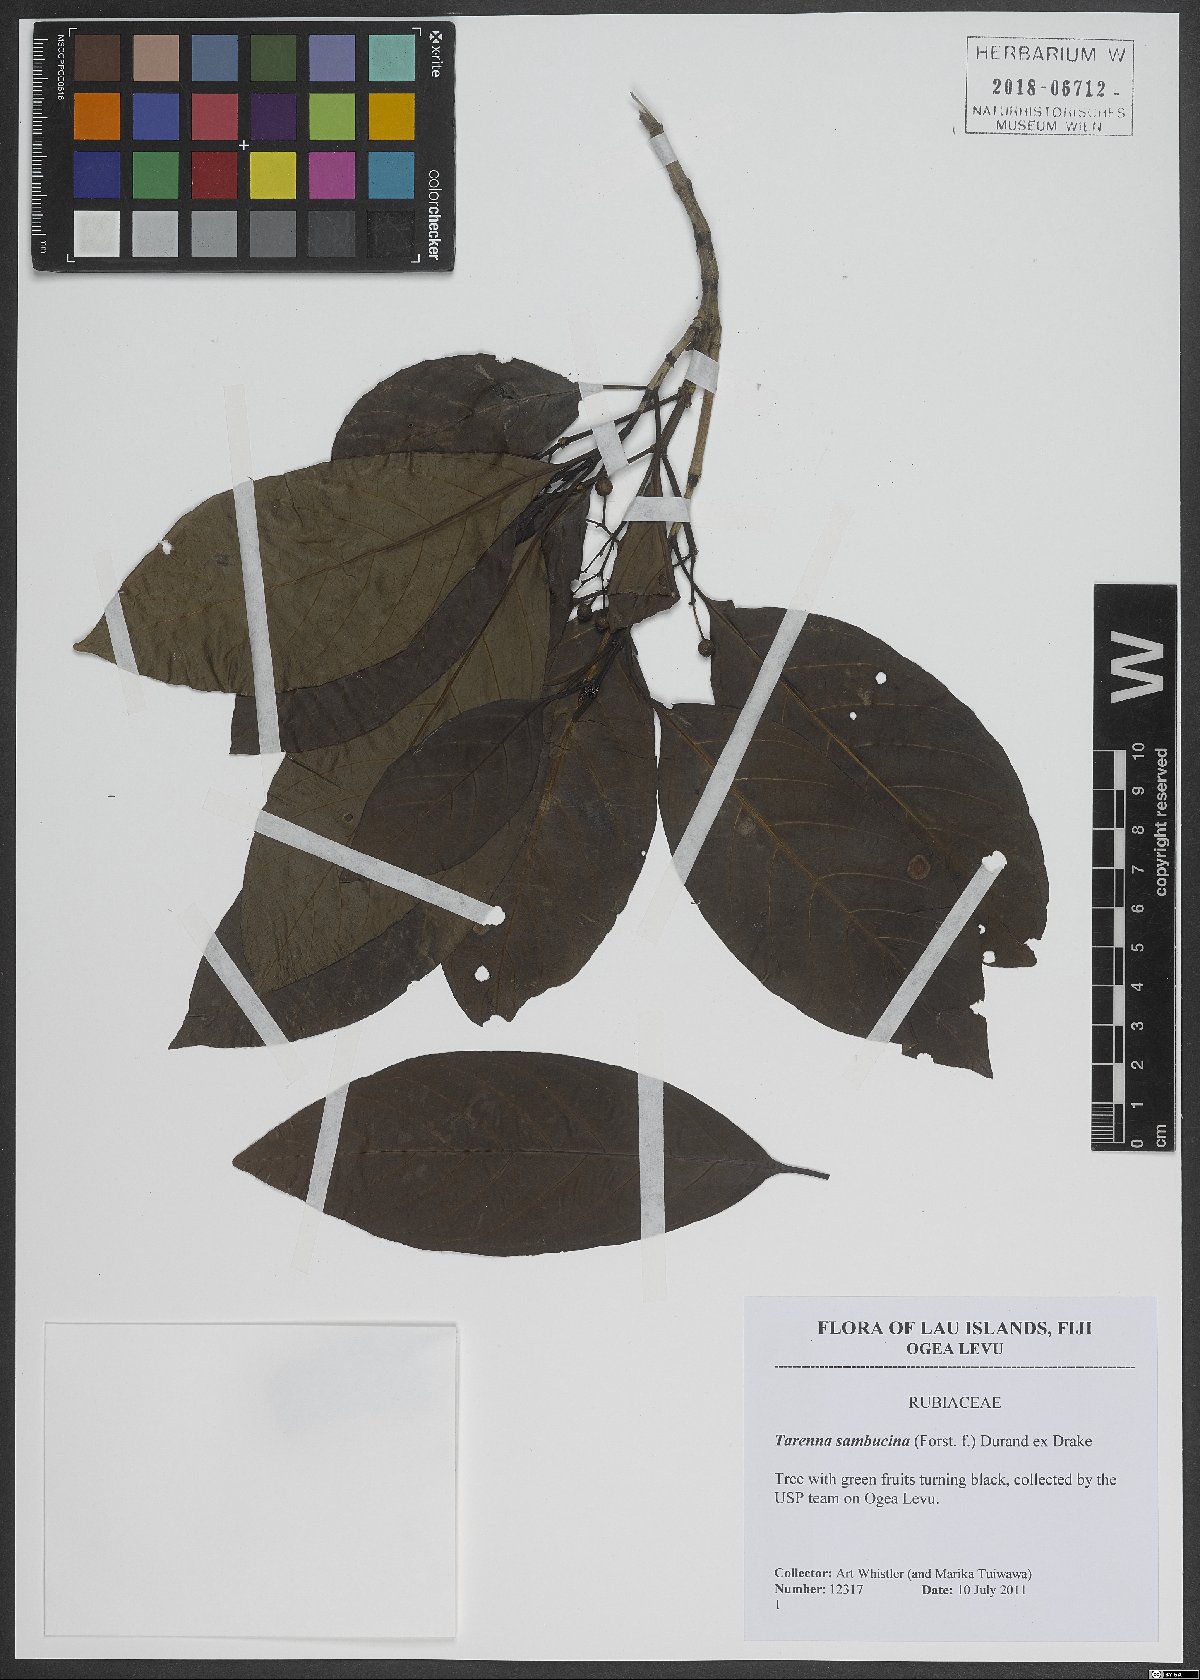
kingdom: Plantae
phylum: Tracheophyta
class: Magnoliopsida
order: Gentianales
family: Rubiaceae
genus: Tarenna
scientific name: Tarenna sambucina
